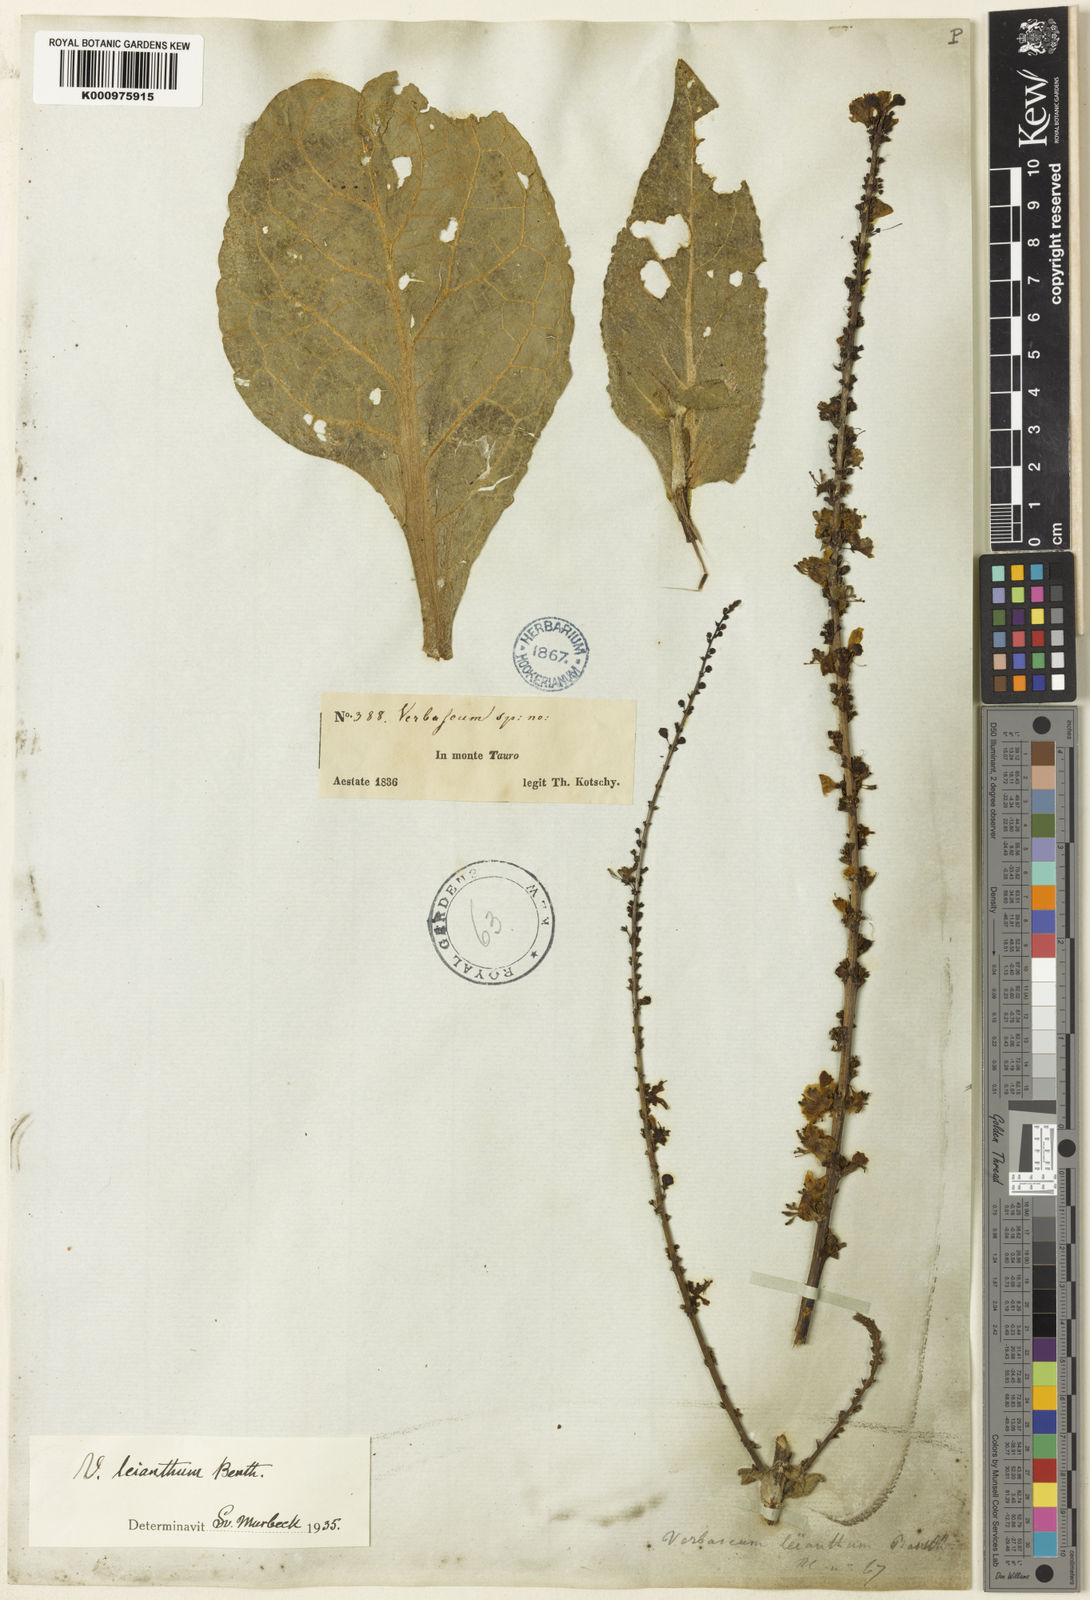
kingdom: Plantae
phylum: Tracheophyta
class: Magnoliopsida
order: Lamiales
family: Scrophulariaceae
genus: Verbascum
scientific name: Verbascum leianthum
